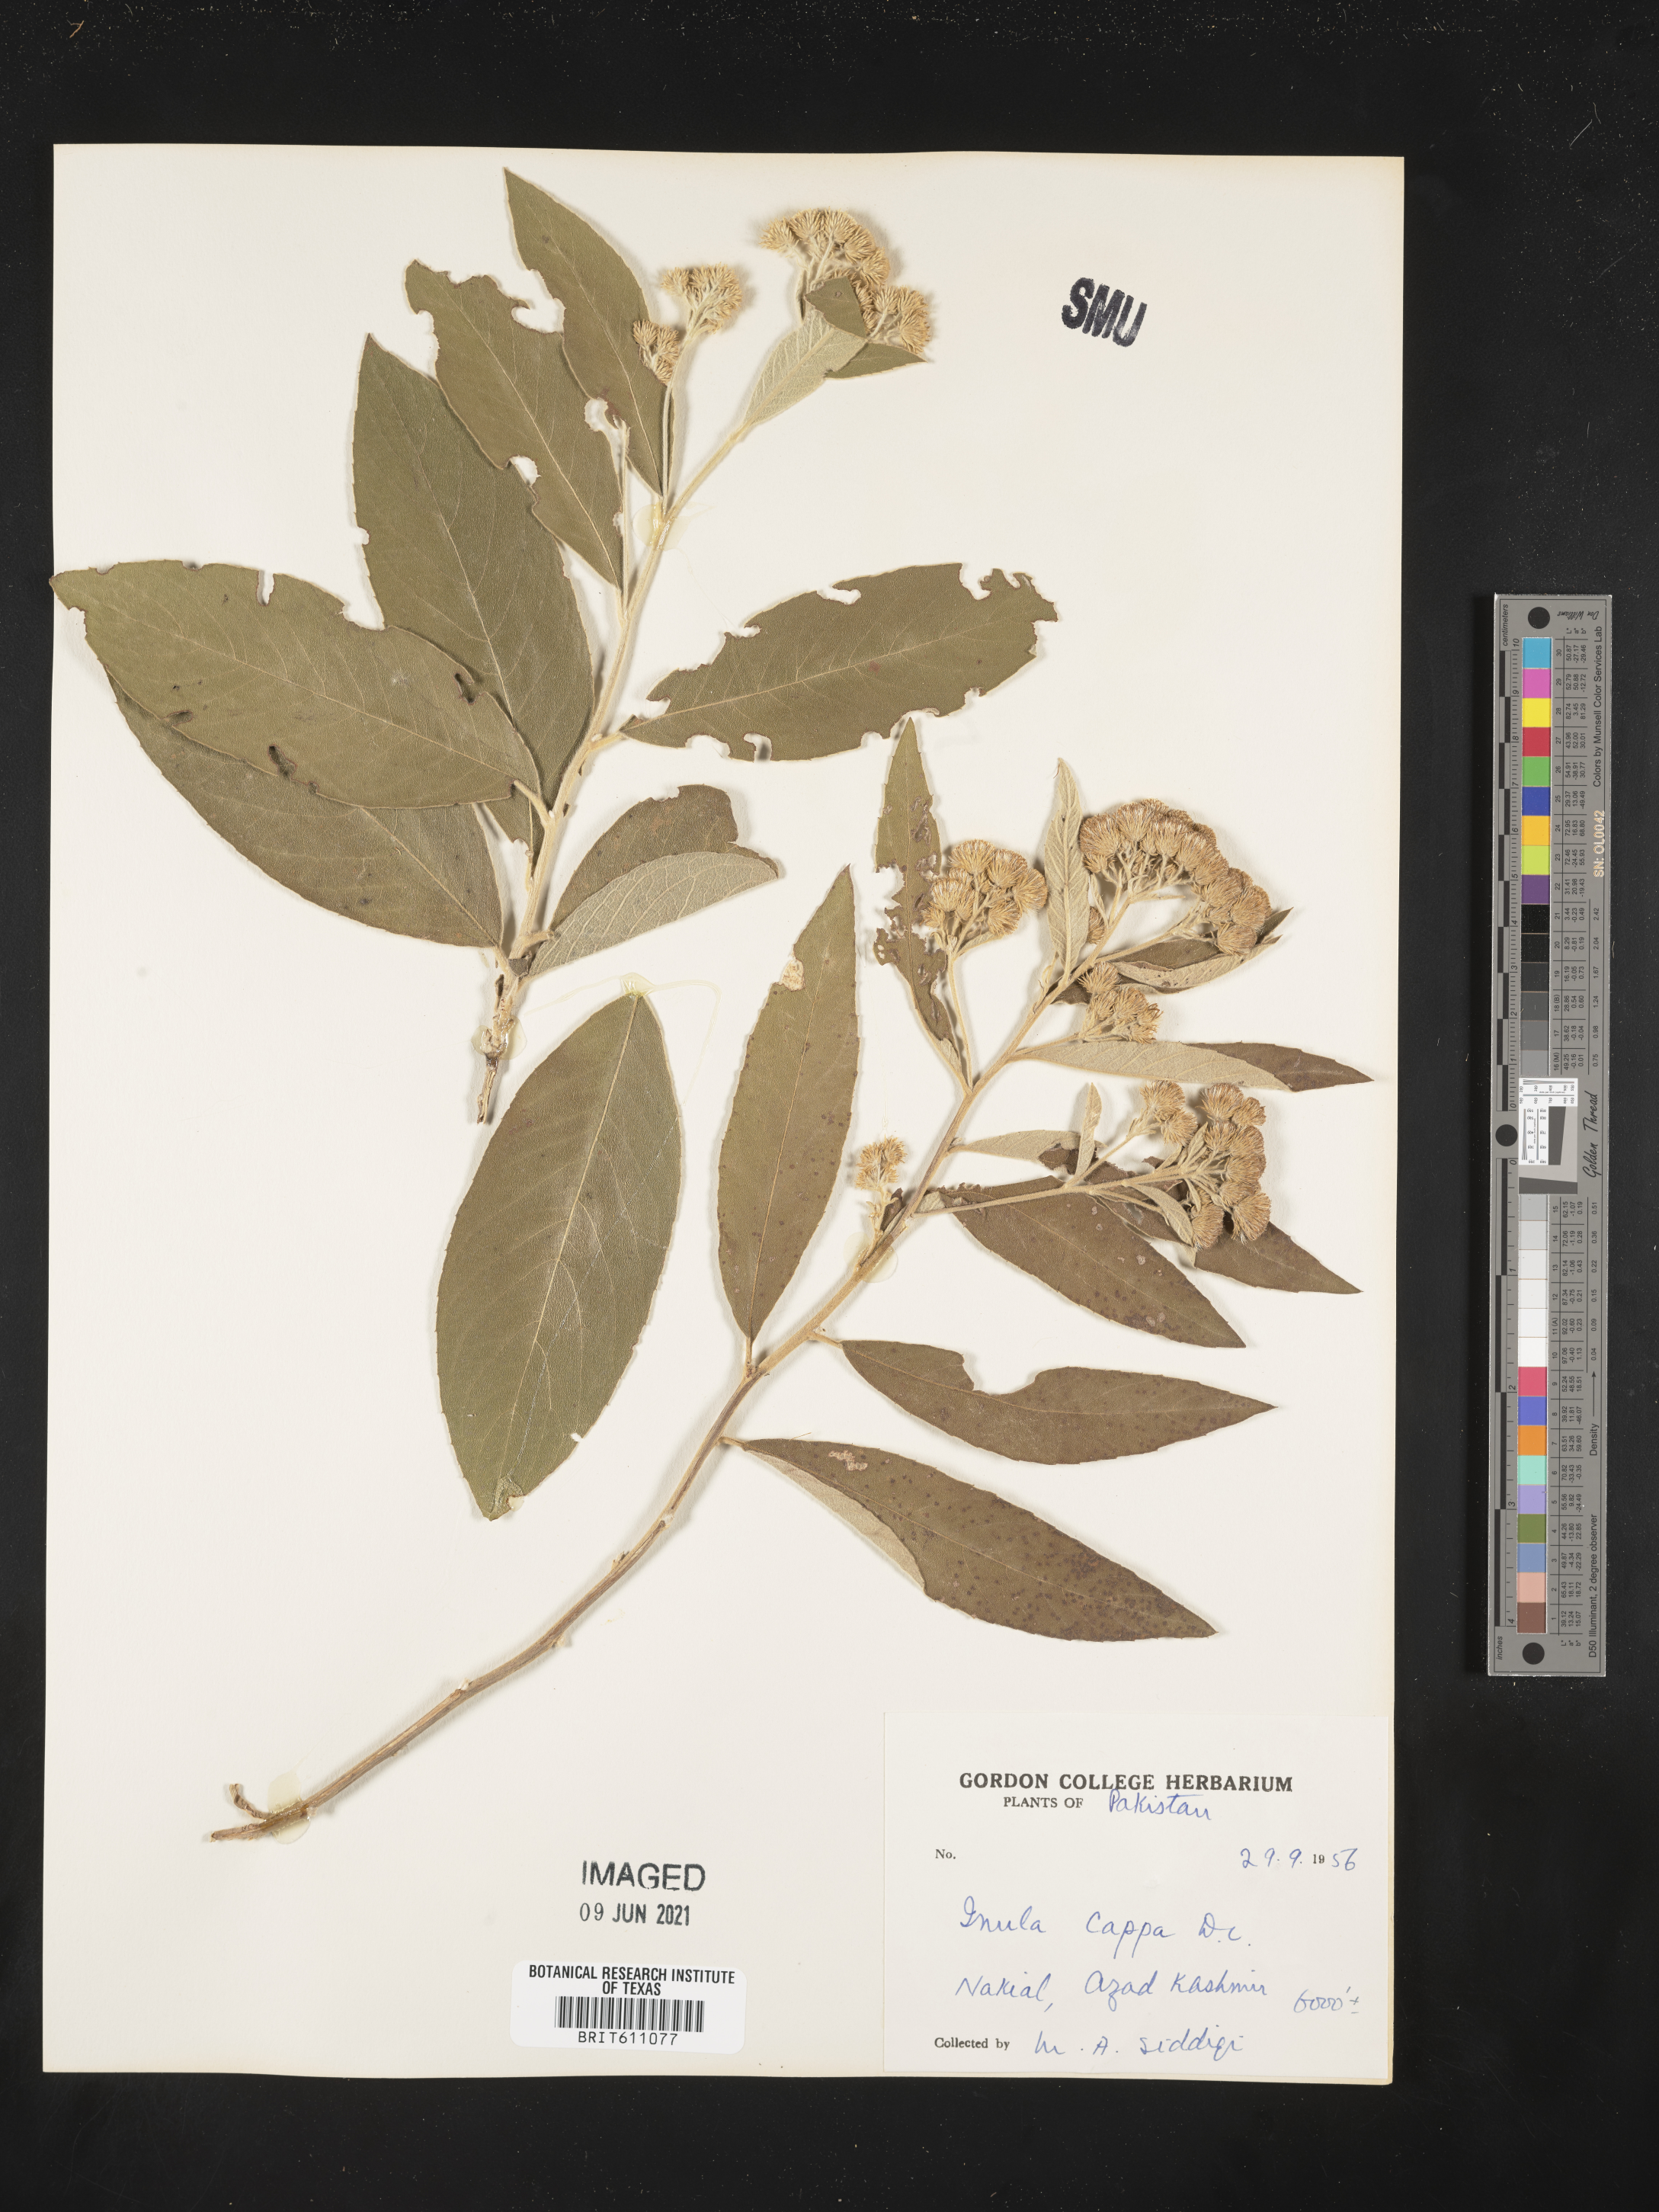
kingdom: Plantae
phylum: Tracheophyta
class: Magnoliopsida
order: Asterales
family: Asteraceae
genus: Duhaldea
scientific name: Duhaldea cappa
